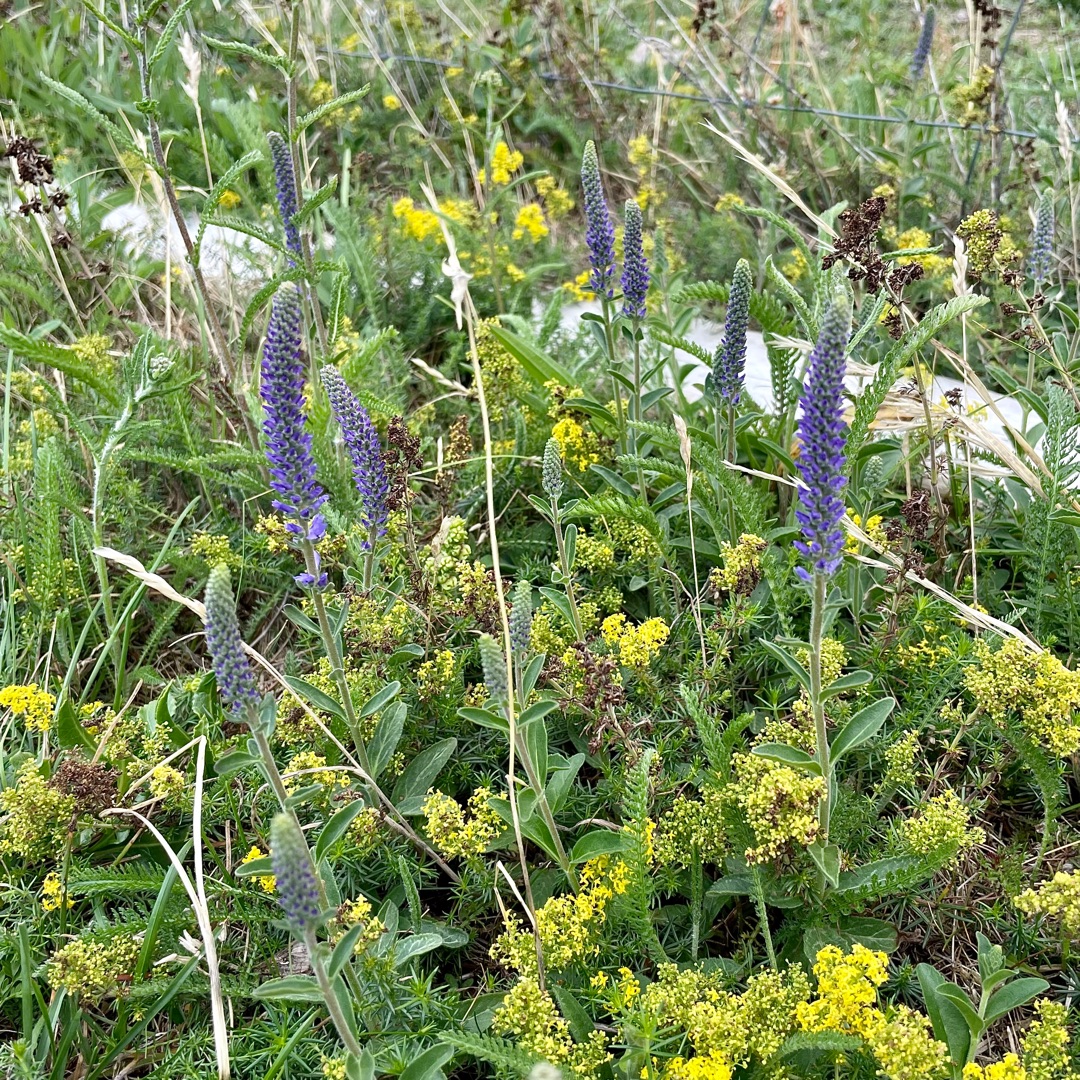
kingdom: Plantae
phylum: Tracheophyta
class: Magnoliopsida
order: Lamiales
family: Plantaginaceae
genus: Veronica
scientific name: Veronica spicata
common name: Aks-ærenpris
